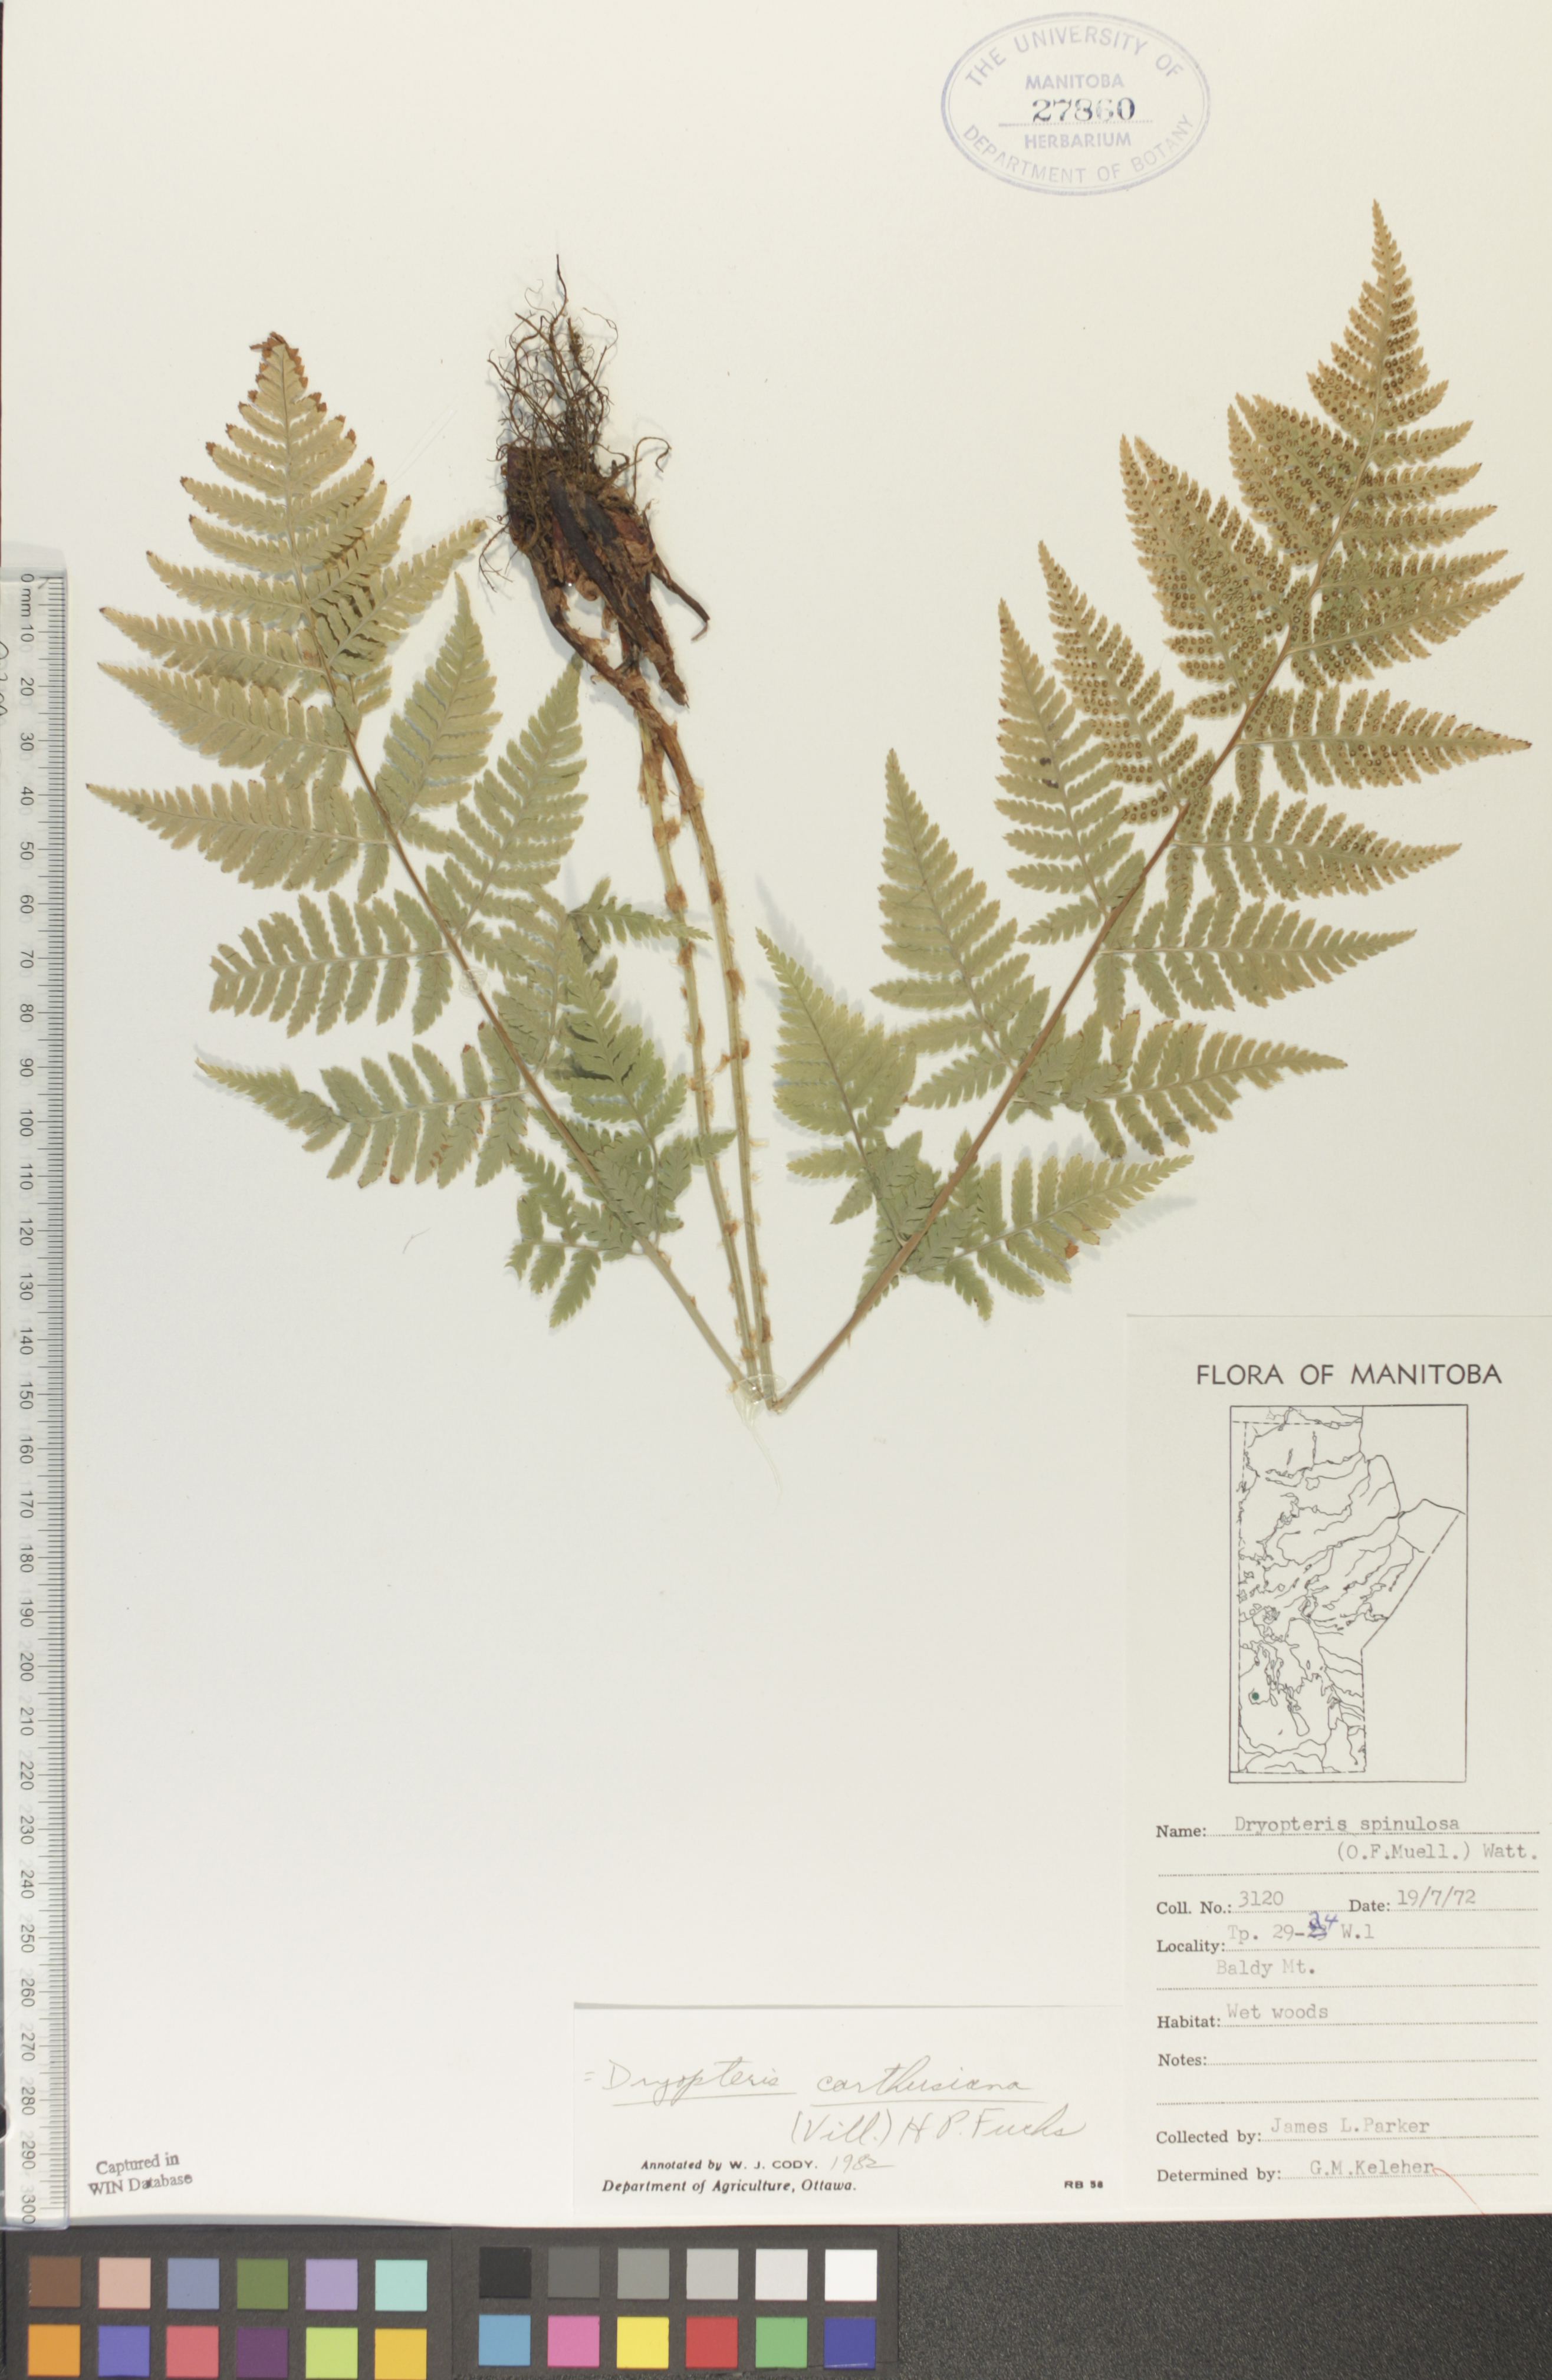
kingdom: Plantae
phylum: Tracheophyta
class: Polypodiopsida
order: Polypodiales
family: Dryopteridaceae
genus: Dryopteris
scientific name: Dryopteris carthusiana
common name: Narrow buckler-fern
